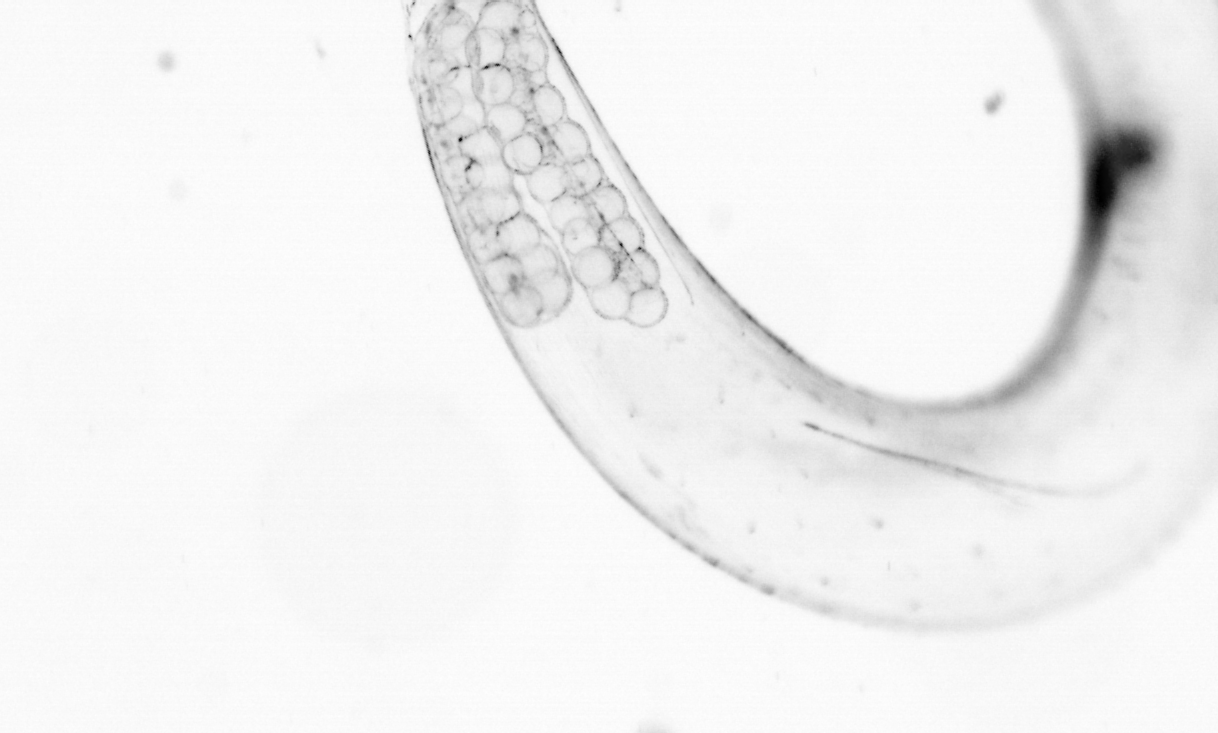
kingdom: Animalia
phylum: Chordata
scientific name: Chordata
